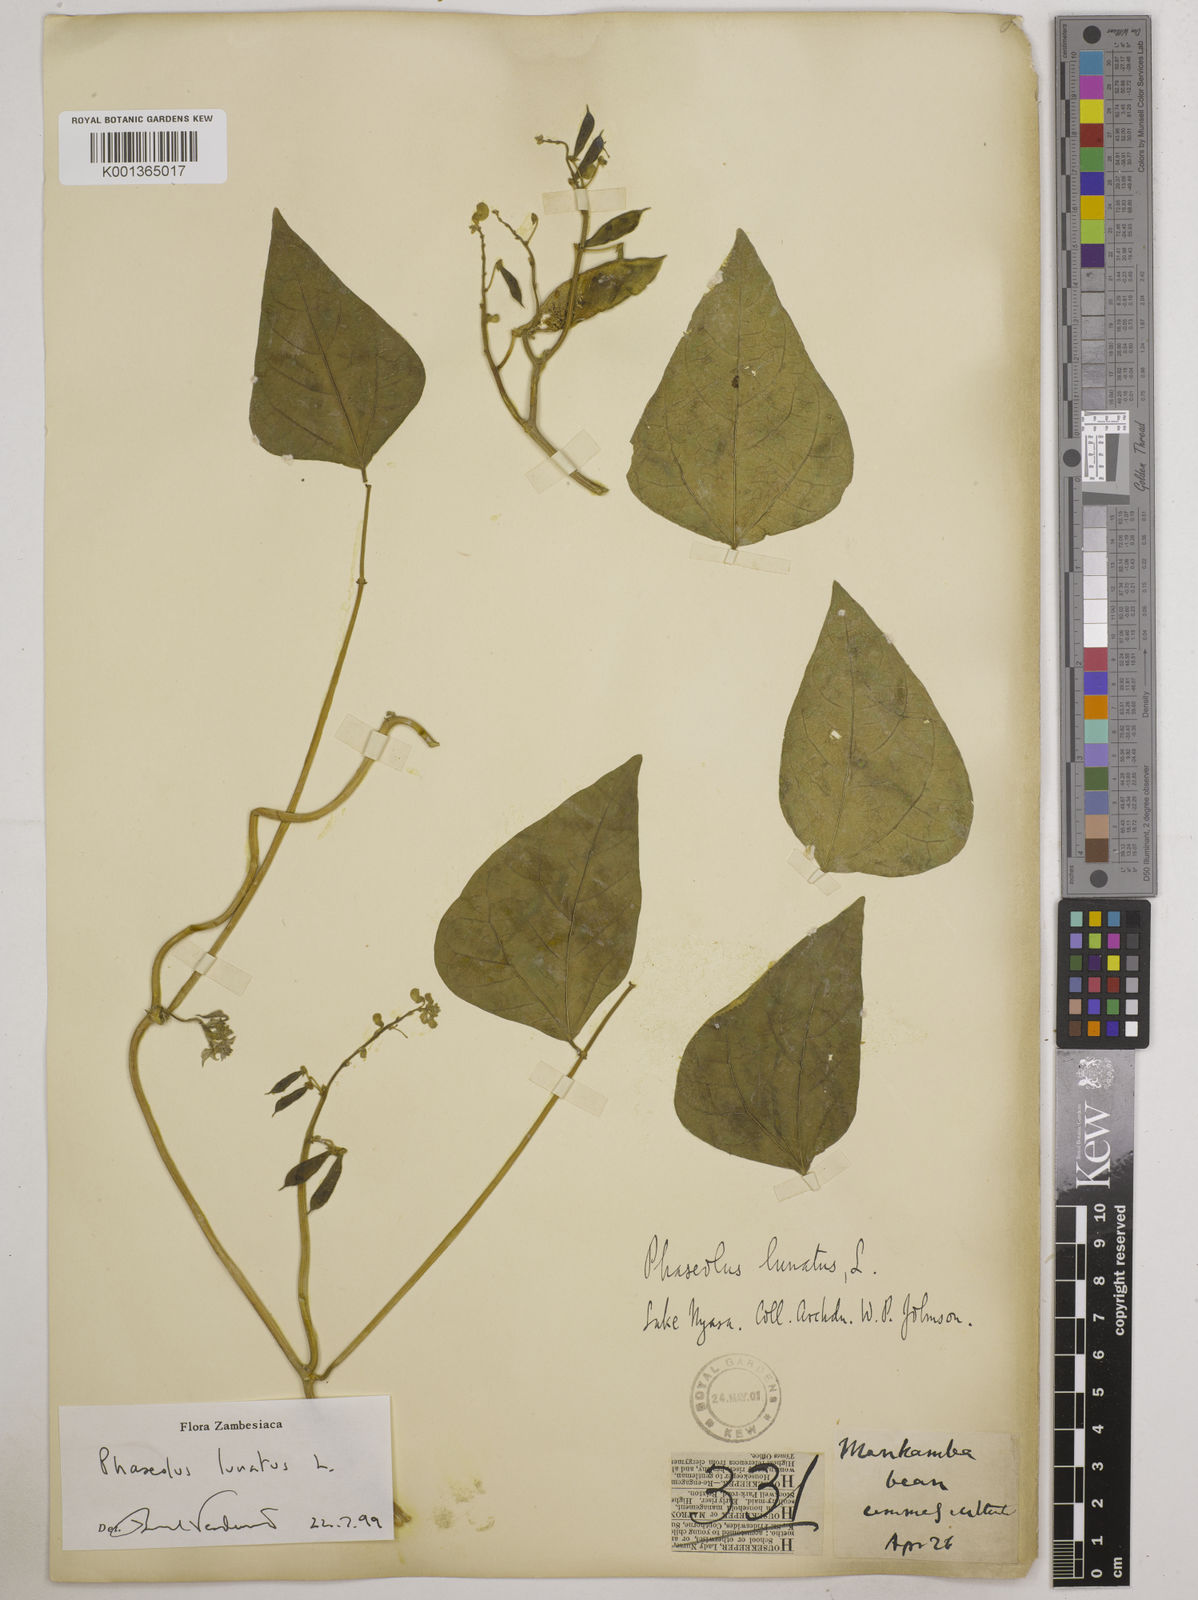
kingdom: Plantae
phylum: Tracheophyta
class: Magnoliopsida
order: Fabales
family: Fabaceae
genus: Phaseolus
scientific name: Phaseolus lunatus
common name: Sieva bean
